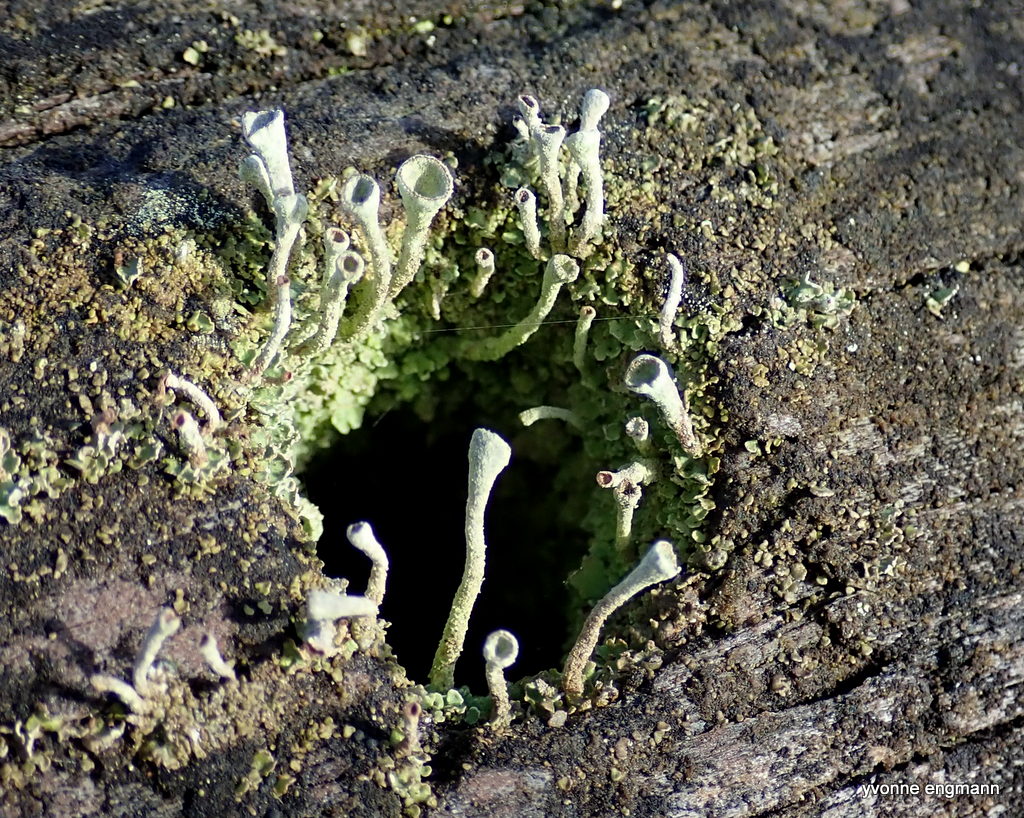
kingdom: Fungi
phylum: Ascomycota
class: Lecanoromycetes
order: Lecanorales
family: Cladoniaceae
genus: Cladonia
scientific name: Cladonia
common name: brungrøn bægerlav
